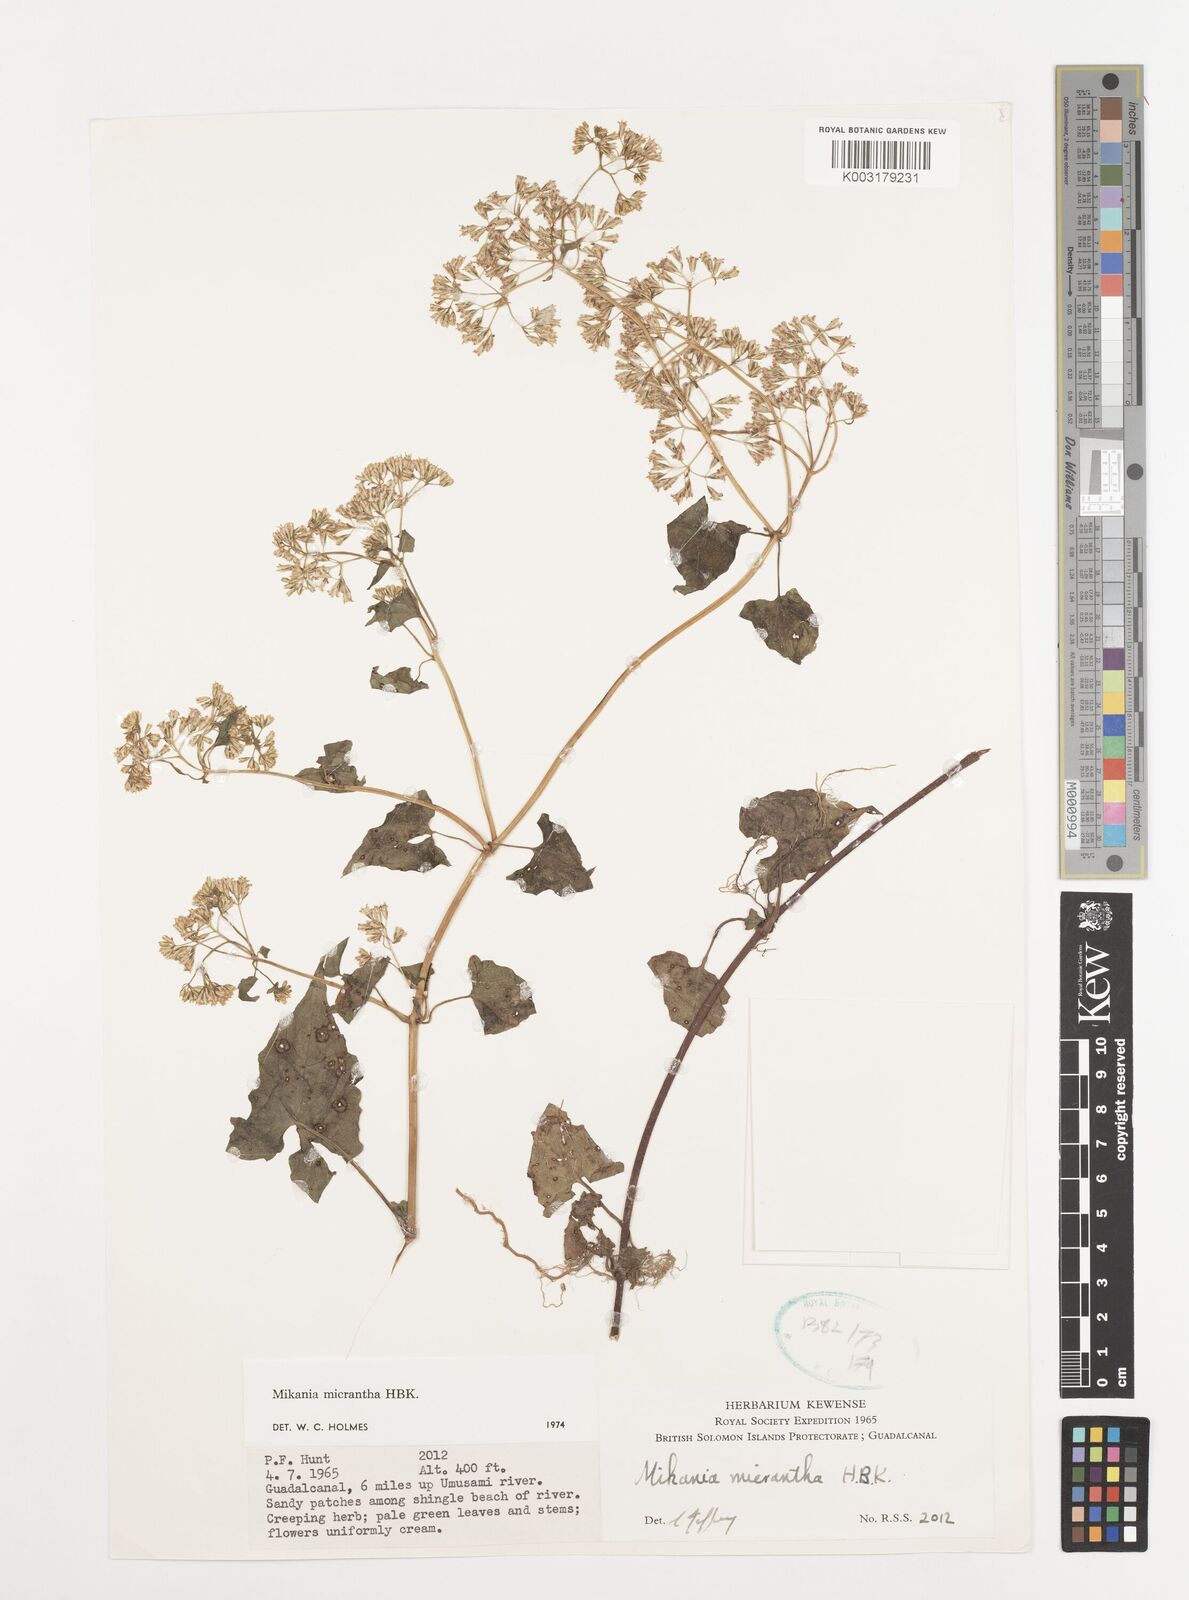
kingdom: Plantae
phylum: Tracheophyta
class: Magnoliopsida
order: Asterales
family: Asteraceae
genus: Mikania
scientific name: Mikania micrantha
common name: Mile-a-minute
